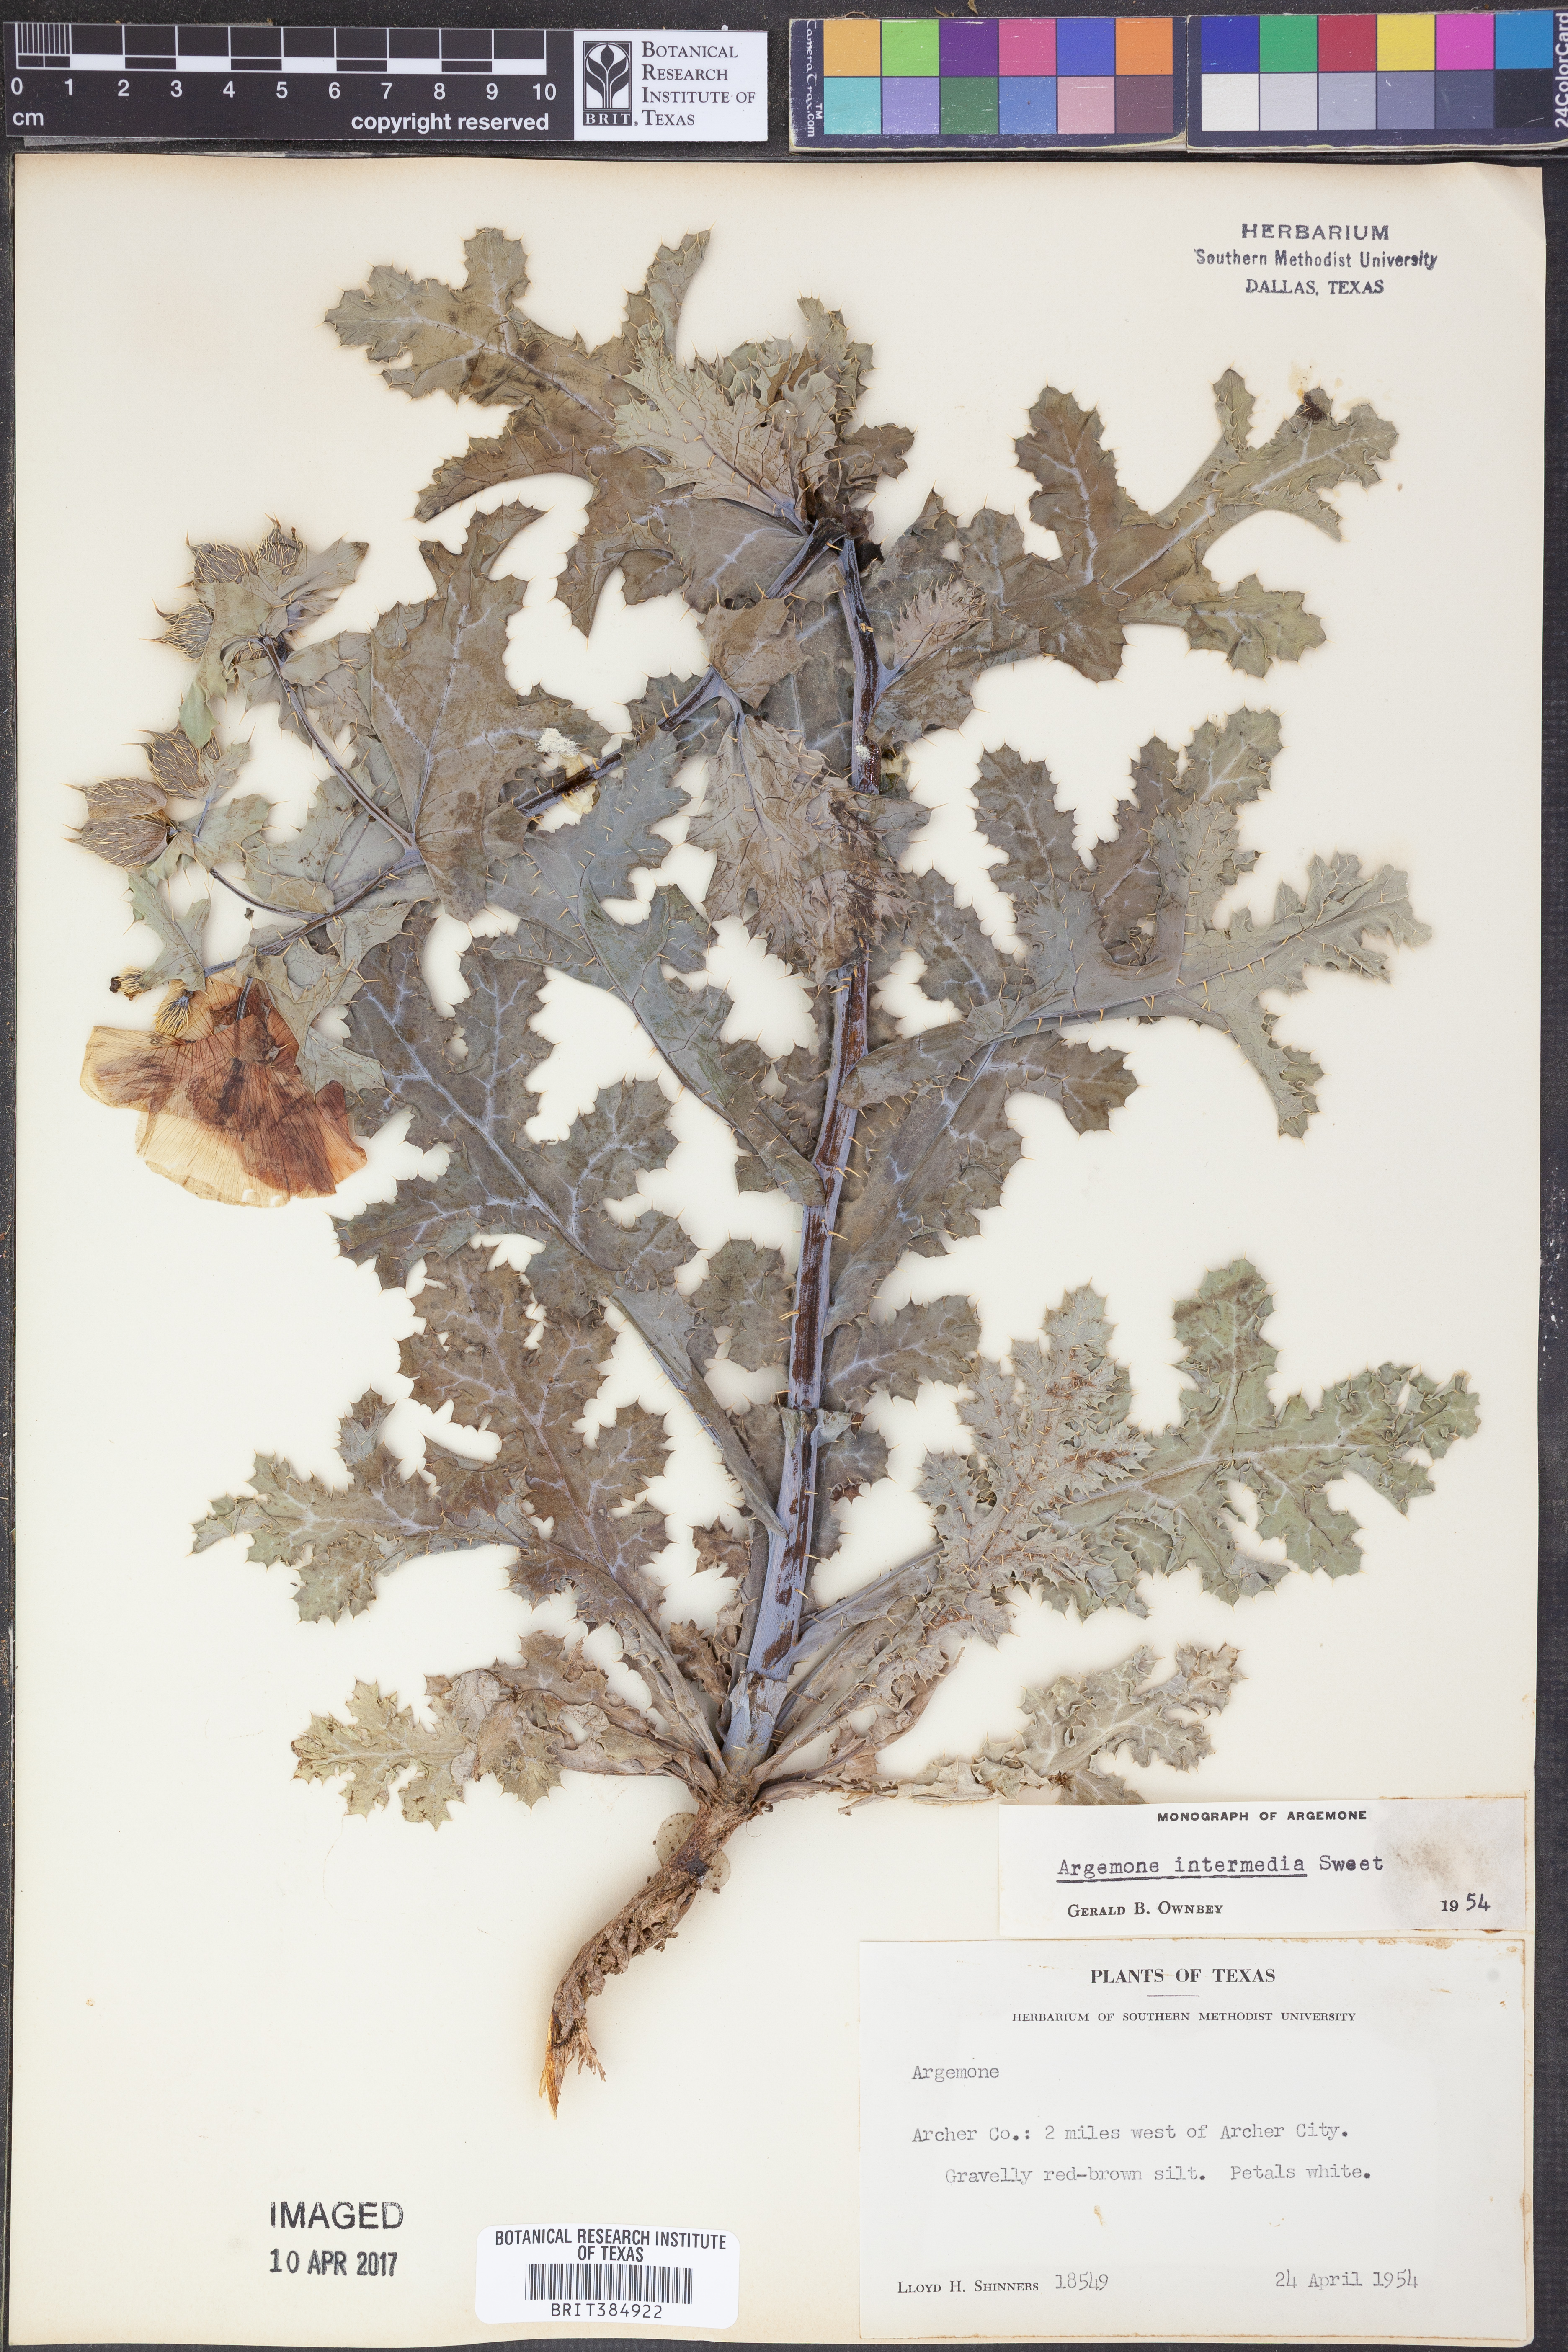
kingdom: Plantae
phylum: Tracheophyta
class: Magnoliopsida
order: Ranunculales
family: Papaveraceae
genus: Argemone
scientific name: Argemone intermedia
